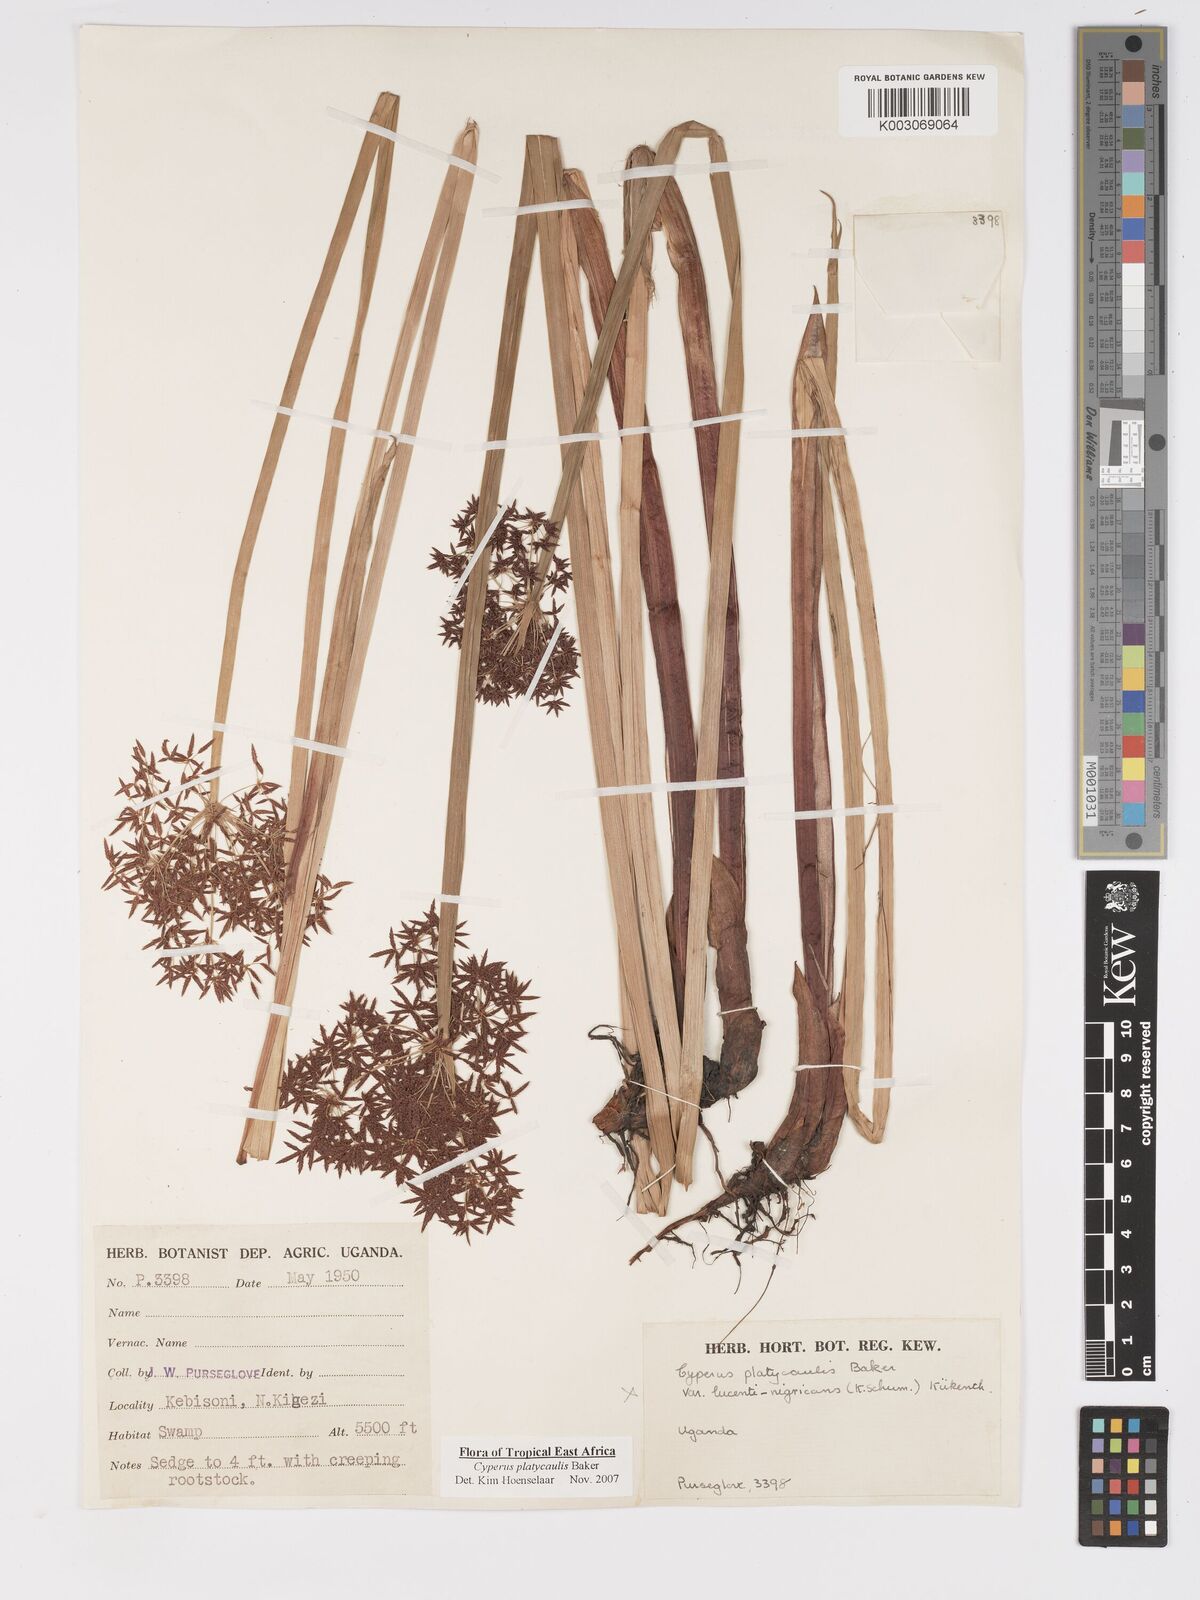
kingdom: Plantae
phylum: Tracheophyta
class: Liliopsida
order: Poales
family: Cyperaceae
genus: Cyperus
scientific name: Cyperus platycaulis
